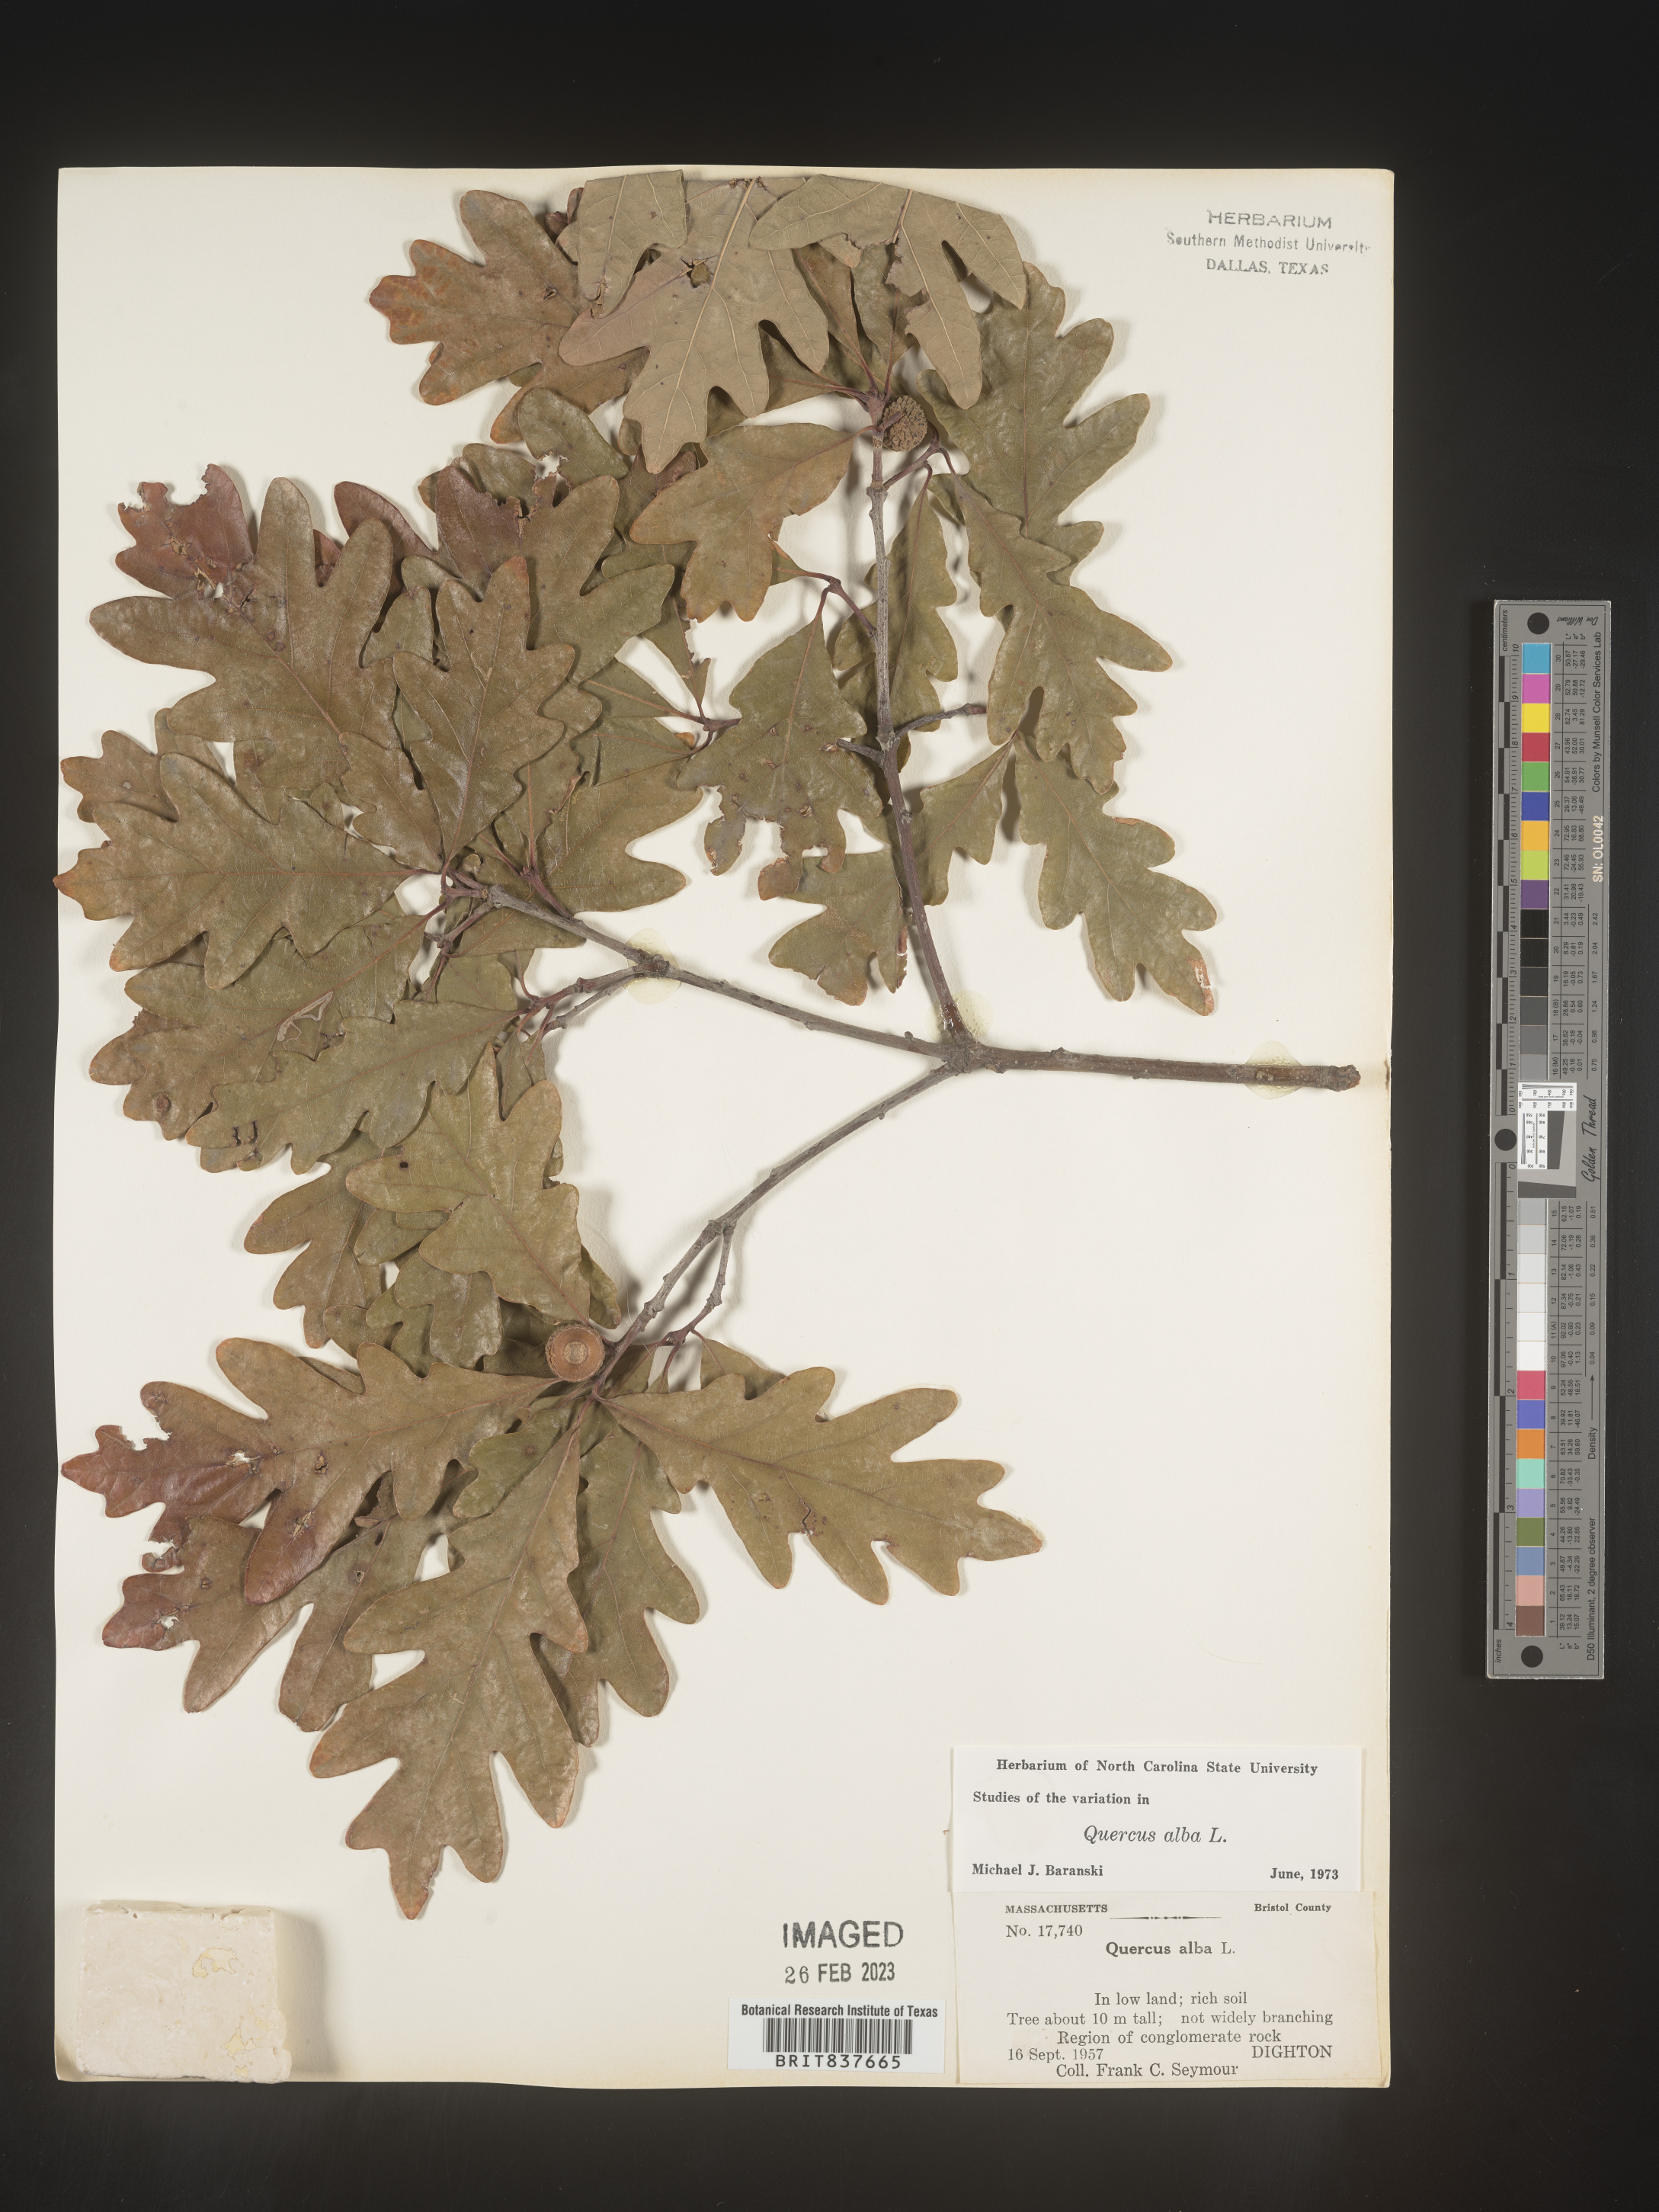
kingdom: Plantae
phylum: Tracheophyta
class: Magnoliopsida
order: Fagales
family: Fagaceae
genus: Quercus
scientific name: Quercus alba
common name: White oak
